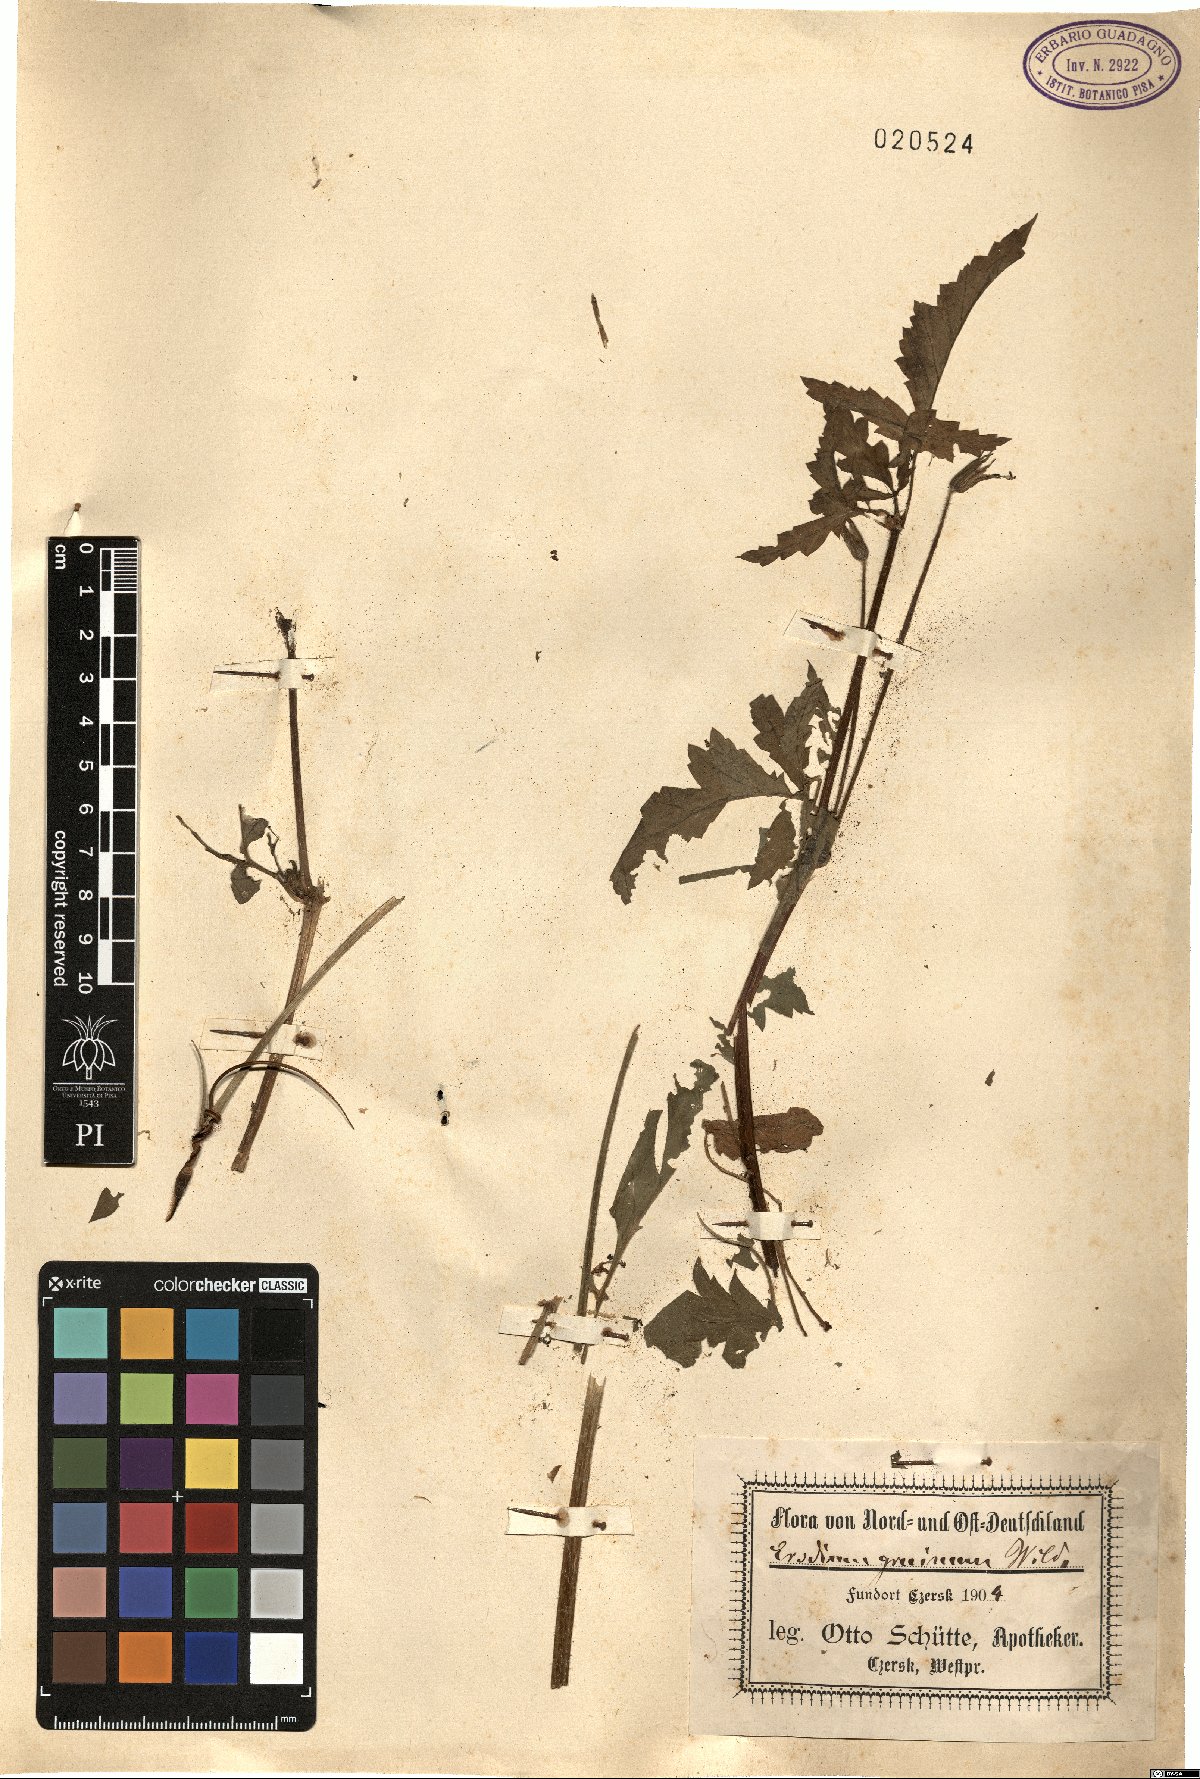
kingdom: Plantae
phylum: Tracheophyta
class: Magnoliopsida
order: Geraniales
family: Geraniaceae
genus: Erodium
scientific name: Erodium gruinum
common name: Iranian stork's bill
